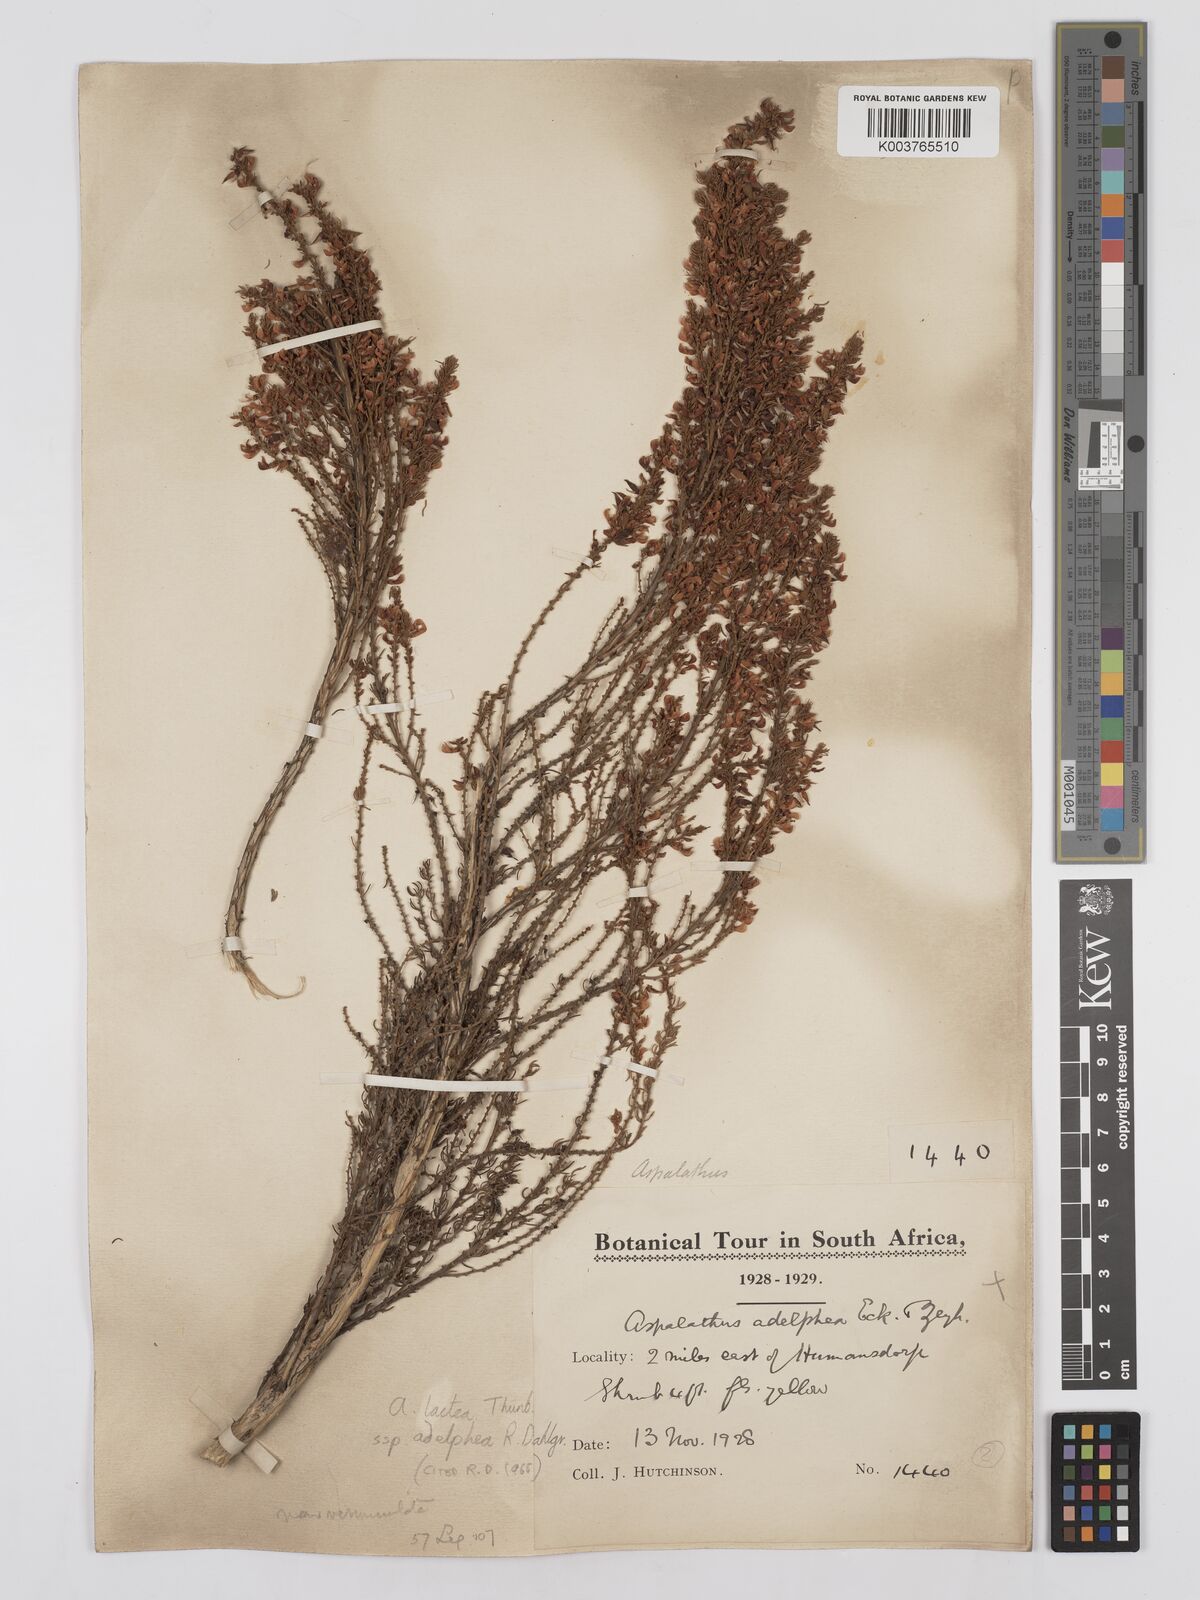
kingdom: Plantae
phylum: Tracheophyta
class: Magnoliopsida
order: Fabales
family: Fabaceae
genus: Aspalathus
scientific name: Aspalathus lactea
